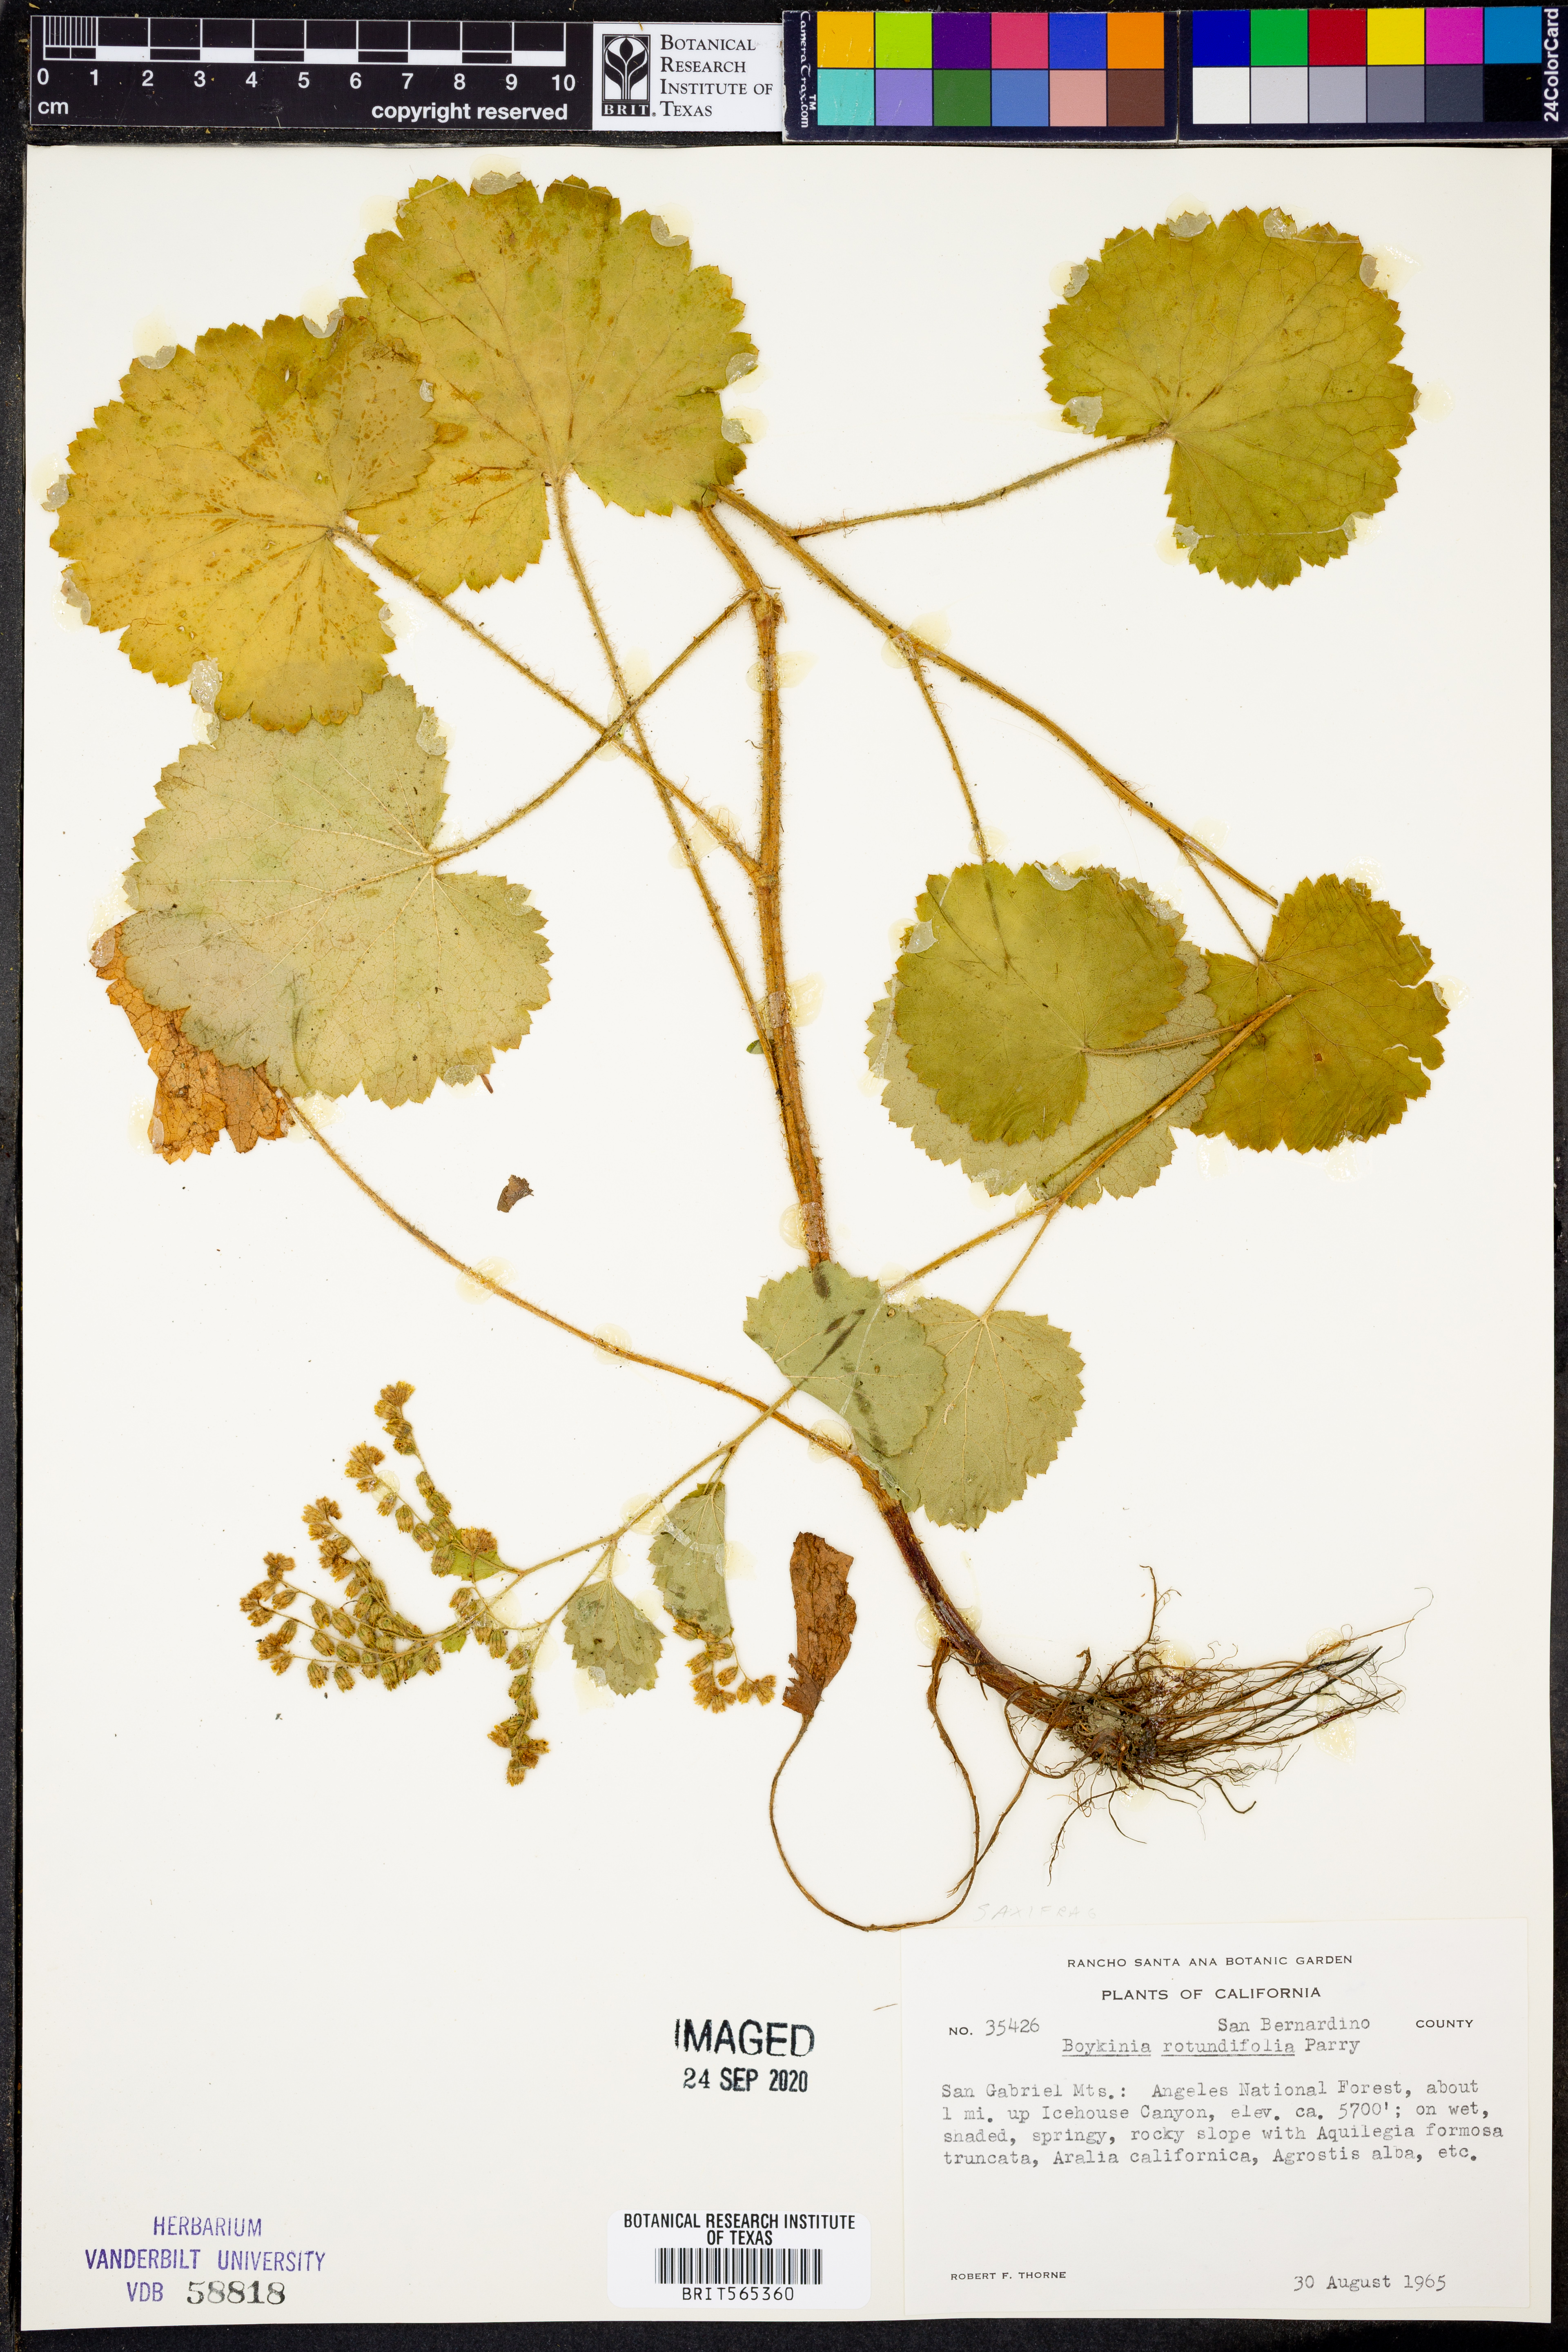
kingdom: Plantae
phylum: Tracheophyta
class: Magnoliopsida
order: Saxifragales
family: Saxifragaceae
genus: Boykinia
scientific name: Boykinia rotundifolia
